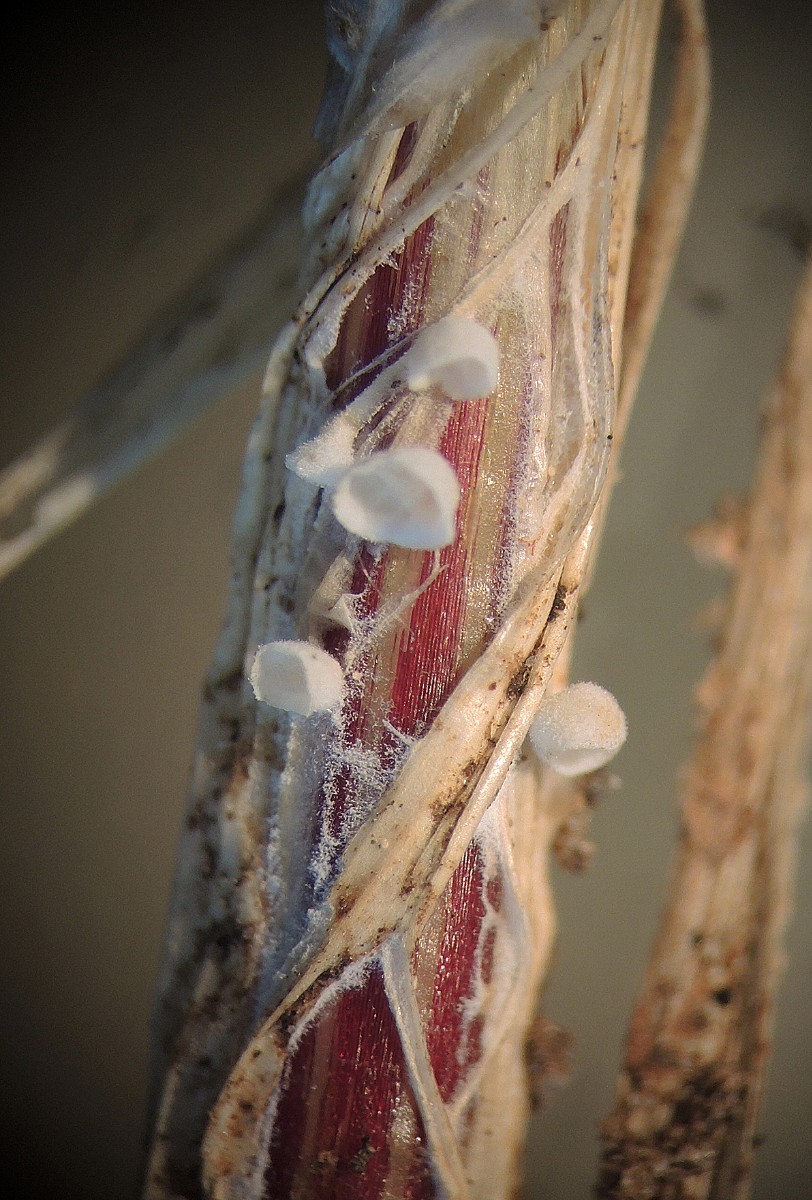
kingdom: Fungi
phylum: Basidiomycota
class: Agaricomycetes
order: Agaricales
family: Tricholomataceae
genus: Cellypha
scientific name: Cellypha goldbachii
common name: dråbeskål
